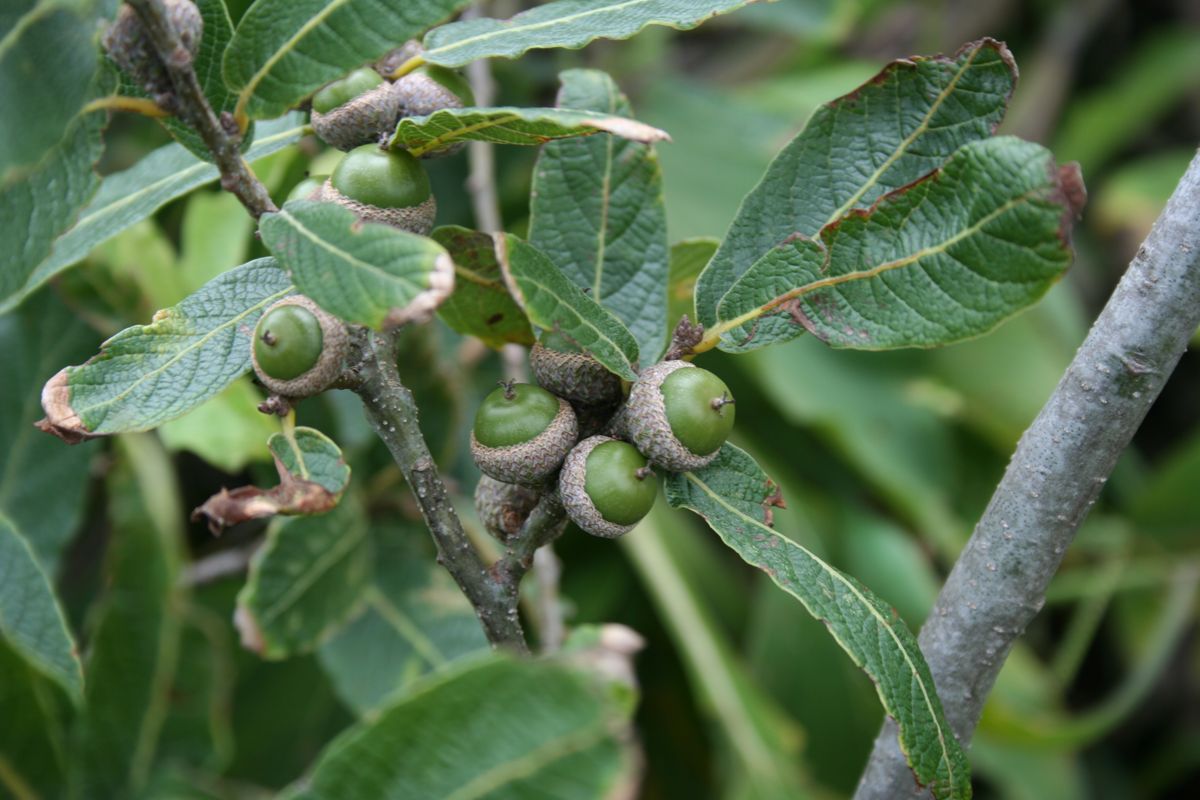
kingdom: Plantae
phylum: Tracheophyta
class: Magnoliopsida
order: Fagales
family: Fagaceae
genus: Quercus
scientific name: Quercus castanea
